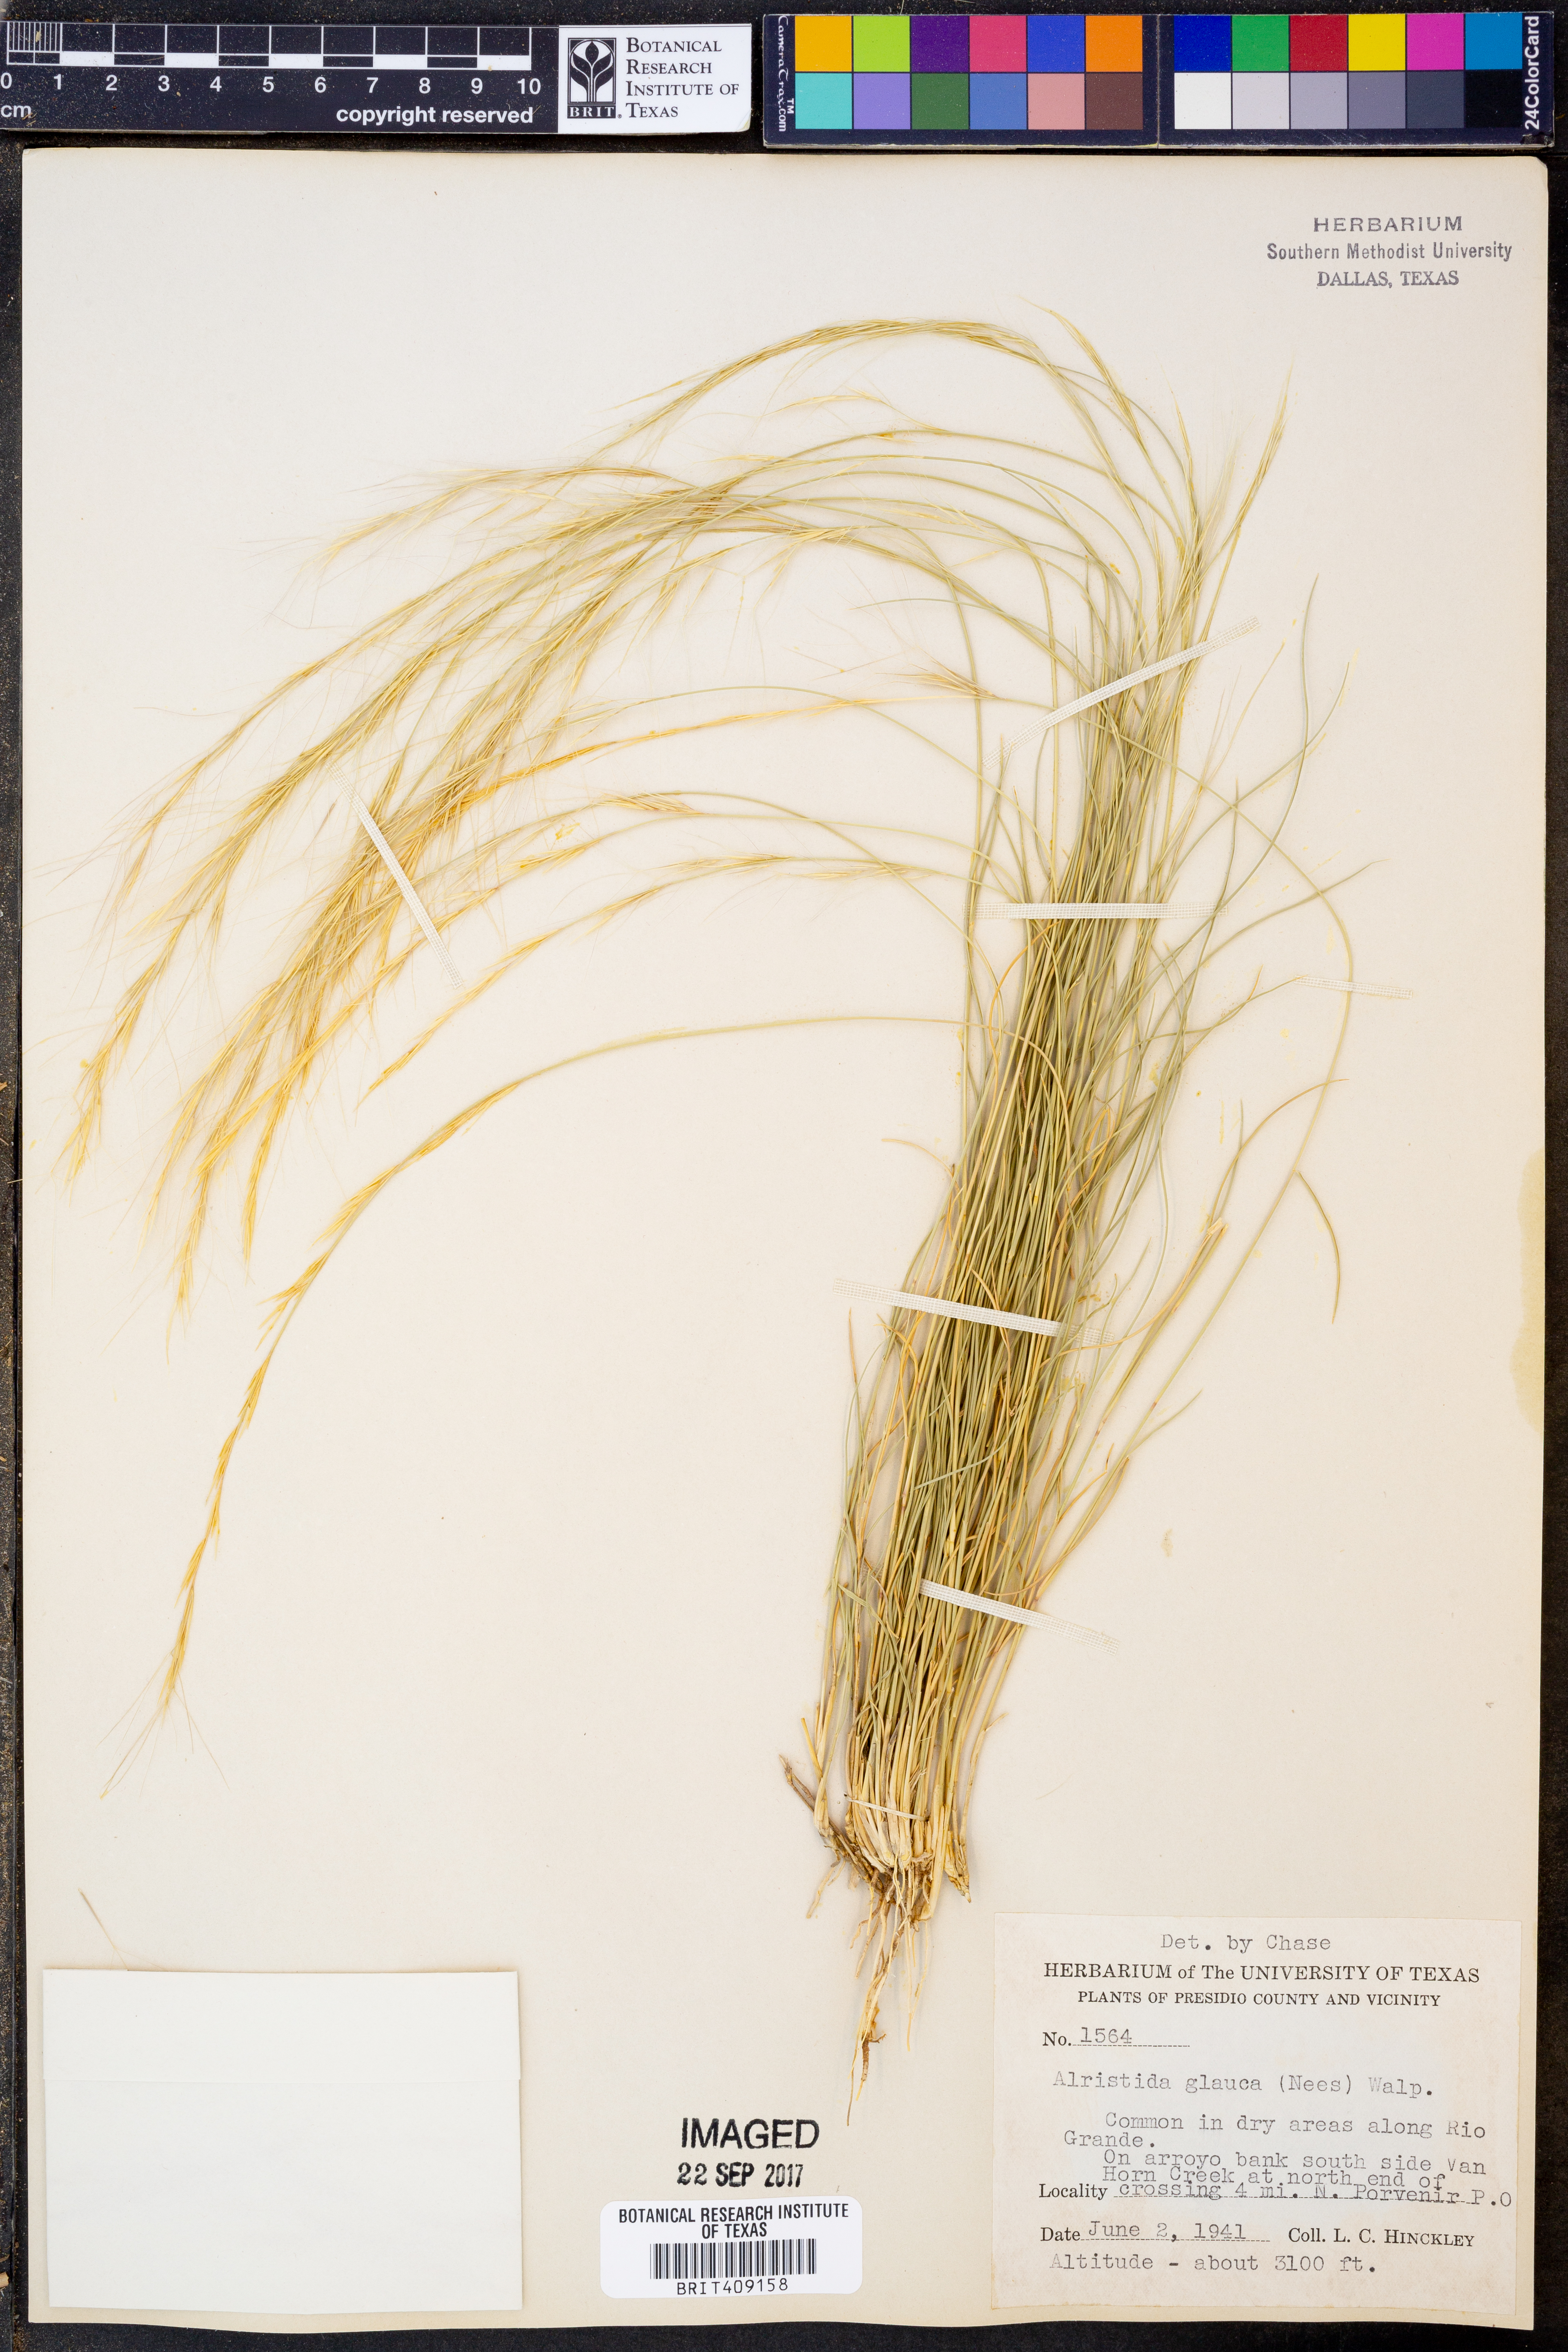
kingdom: Plantae
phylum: Tracheophyta
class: Liliopsida
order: Poales
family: Poaceae
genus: Aristida
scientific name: Aristida glauca
